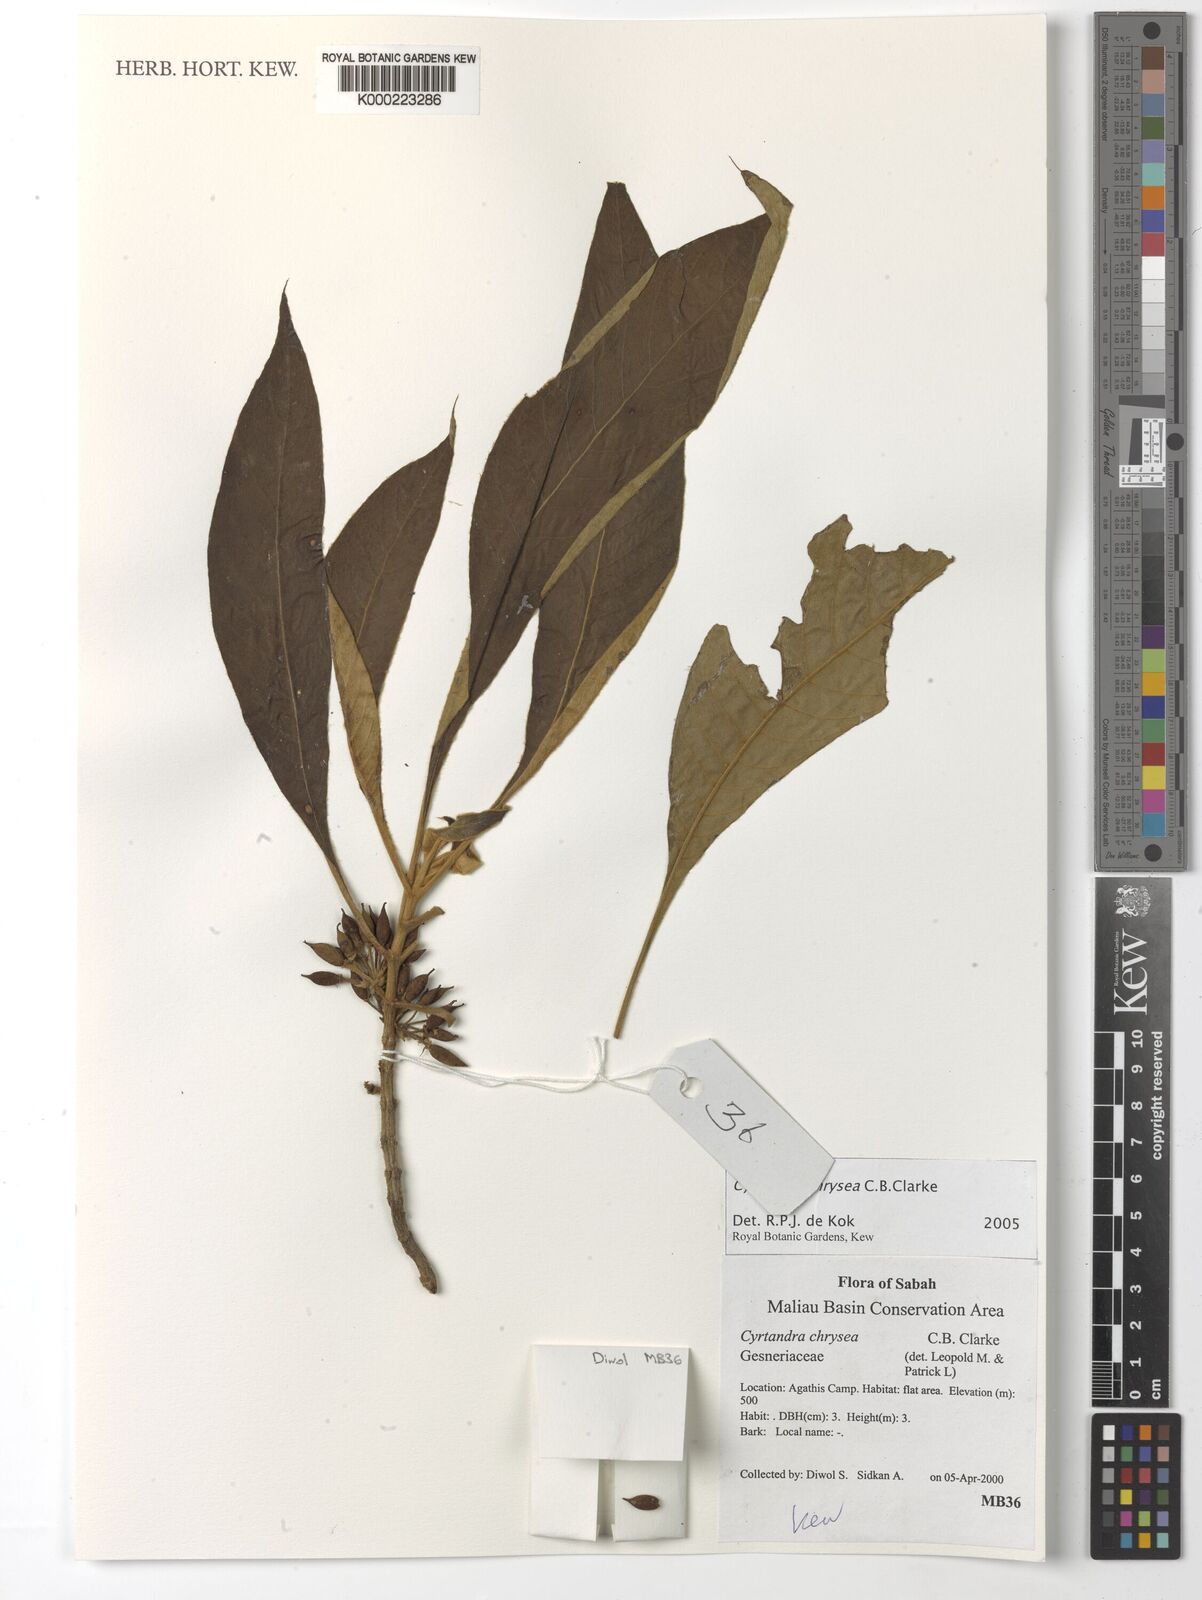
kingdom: Plantae
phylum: Tracheophyta
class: Magnoliopsida
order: Lamiales
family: Gesneriaceae
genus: Cyrtandra
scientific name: Cyrtandra chrysea
